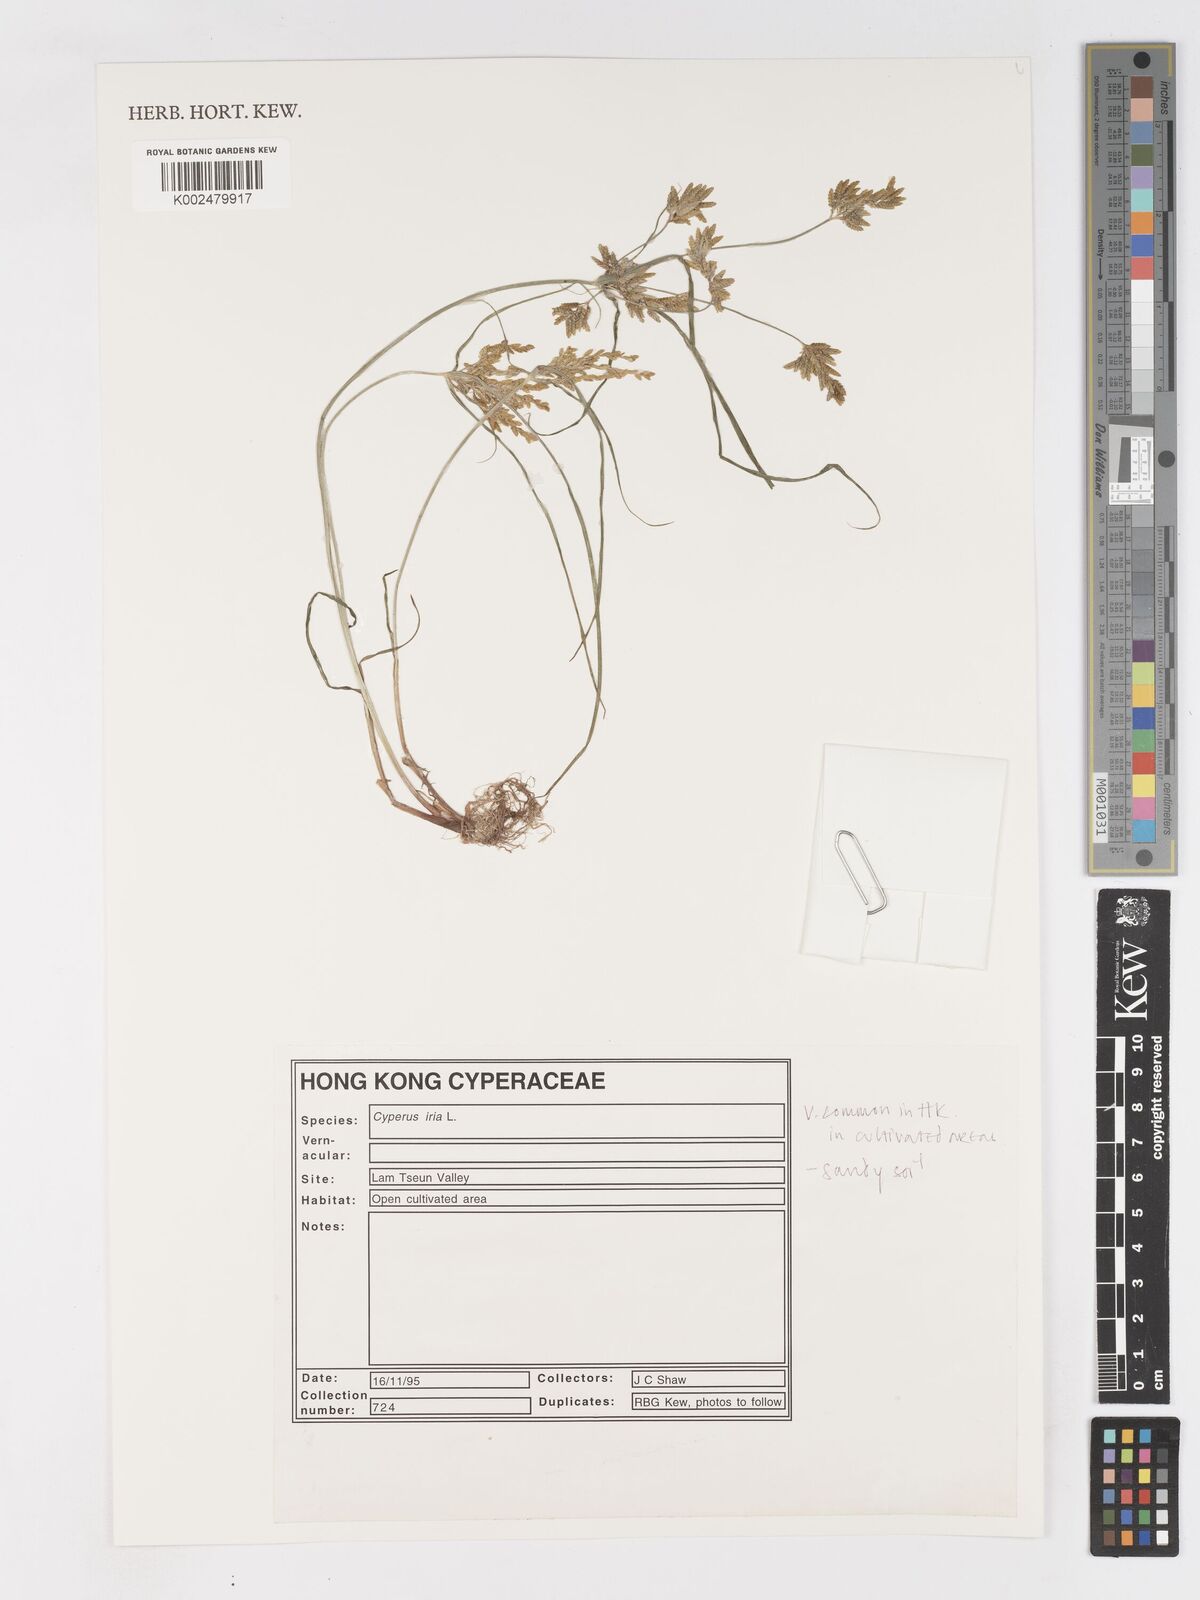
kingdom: Plantae
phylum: Tracheophyta
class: Liliopsida
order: Poales
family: Cyperaceae
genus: Cyperus
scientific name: Cyperus iria
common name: Ricefield flatsedge
